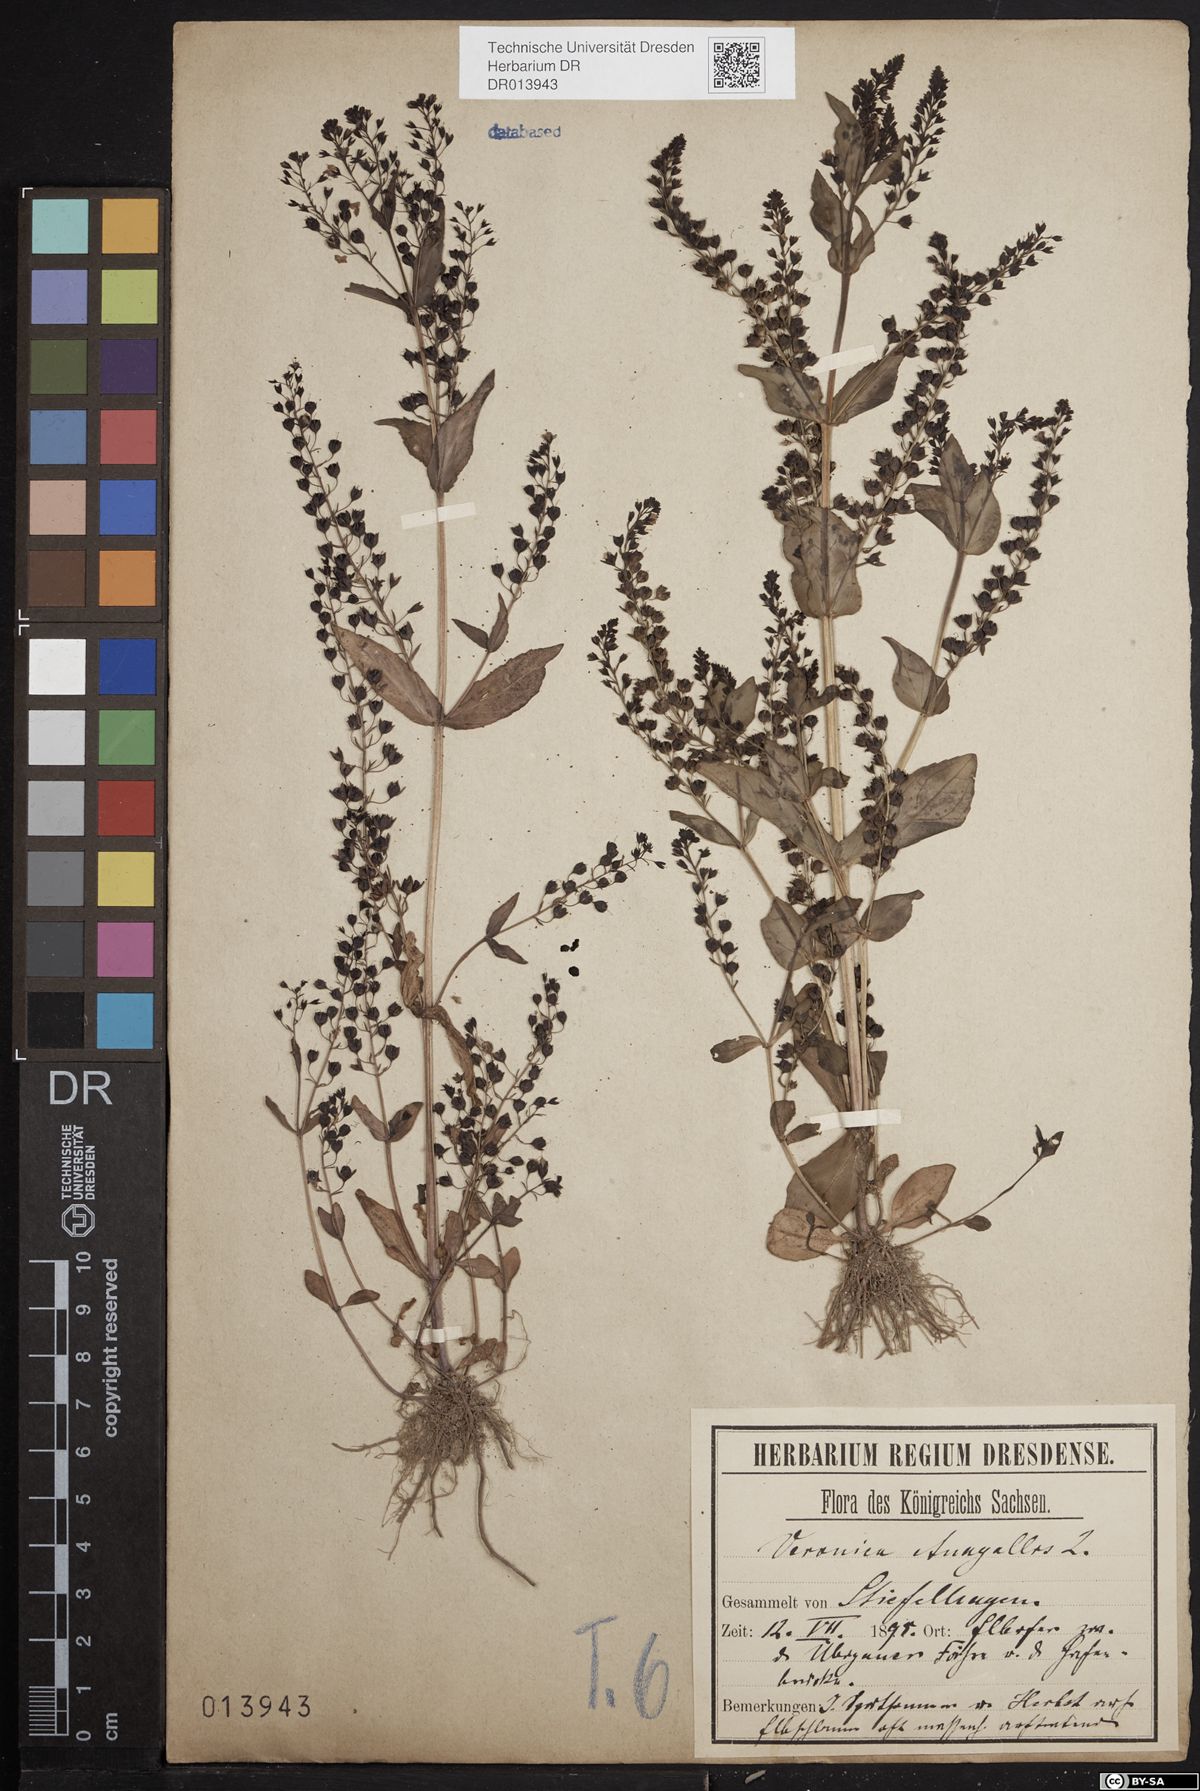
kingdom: Plantae
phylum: Tracheophyta
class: Magnoliopsida
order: Lamiales
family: Plantaginaceae
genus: Veronica
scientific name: Veronica anagallis-aquatica
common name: Water speedwell
